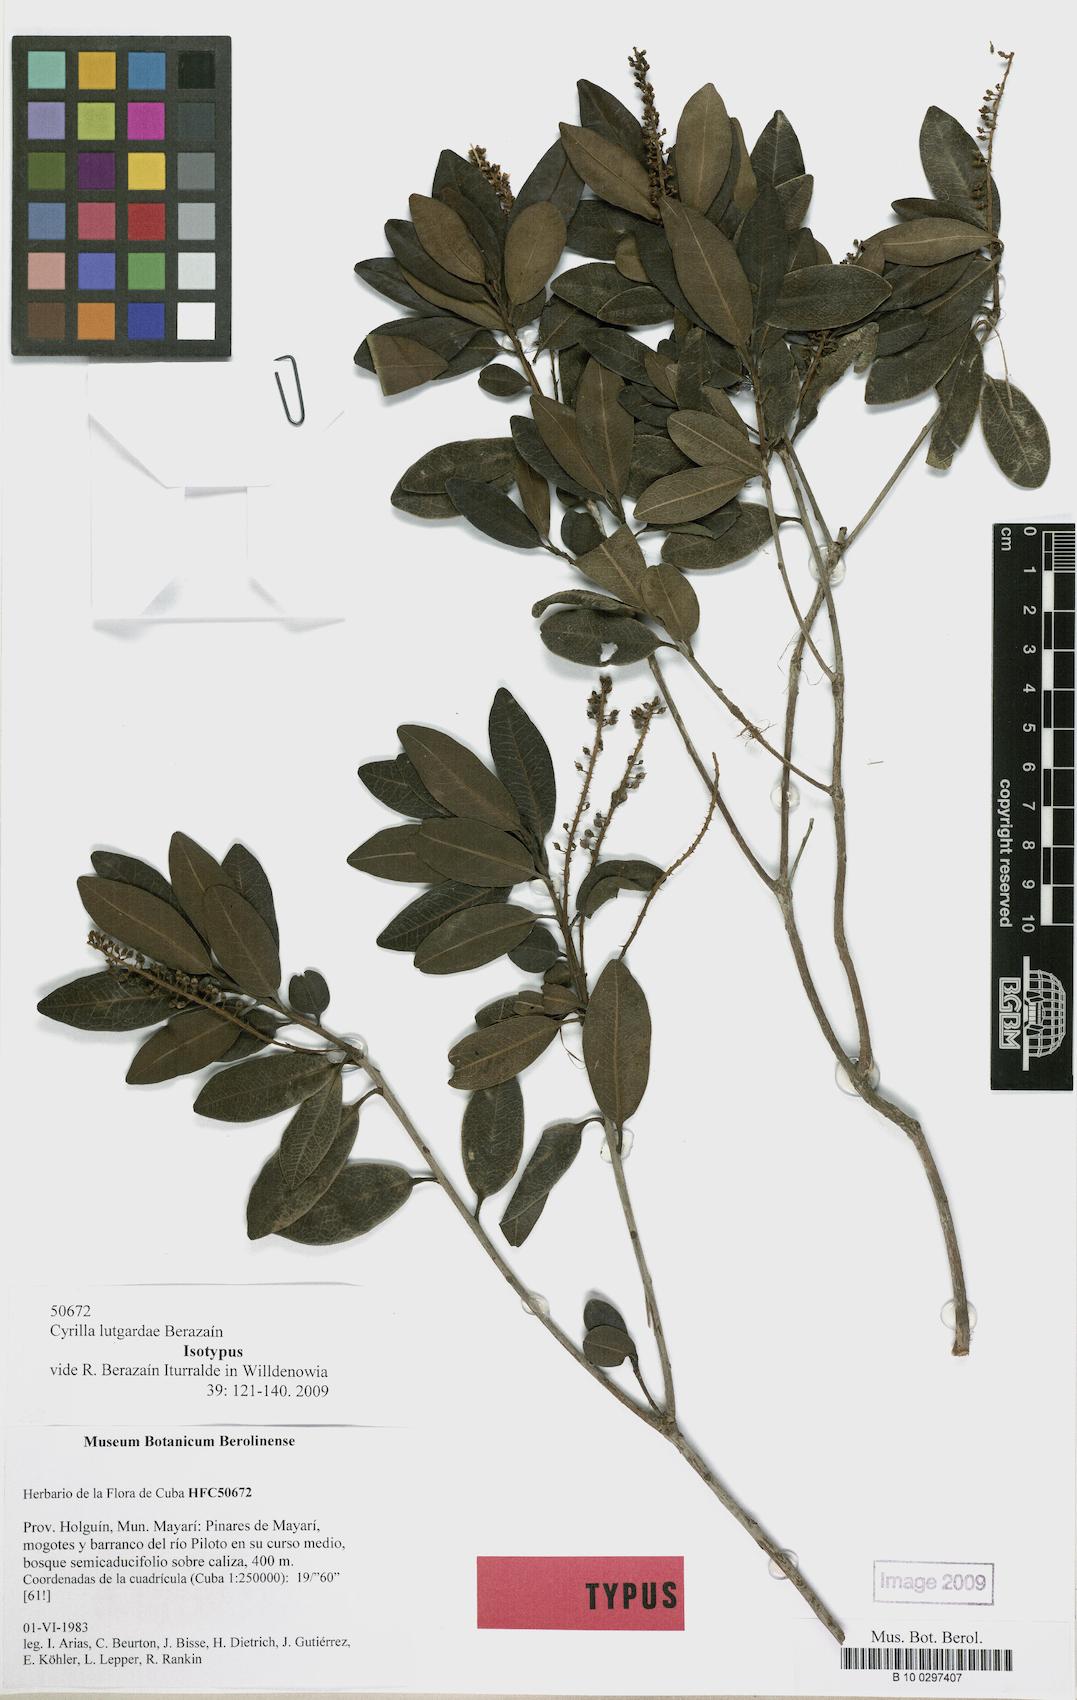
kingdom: Plantae
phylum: Tracheophyta
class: Magnoliopsida
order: Ericales
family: Cyrillaceae
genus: Cyrilla
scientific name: Cyrilla lutgardae
